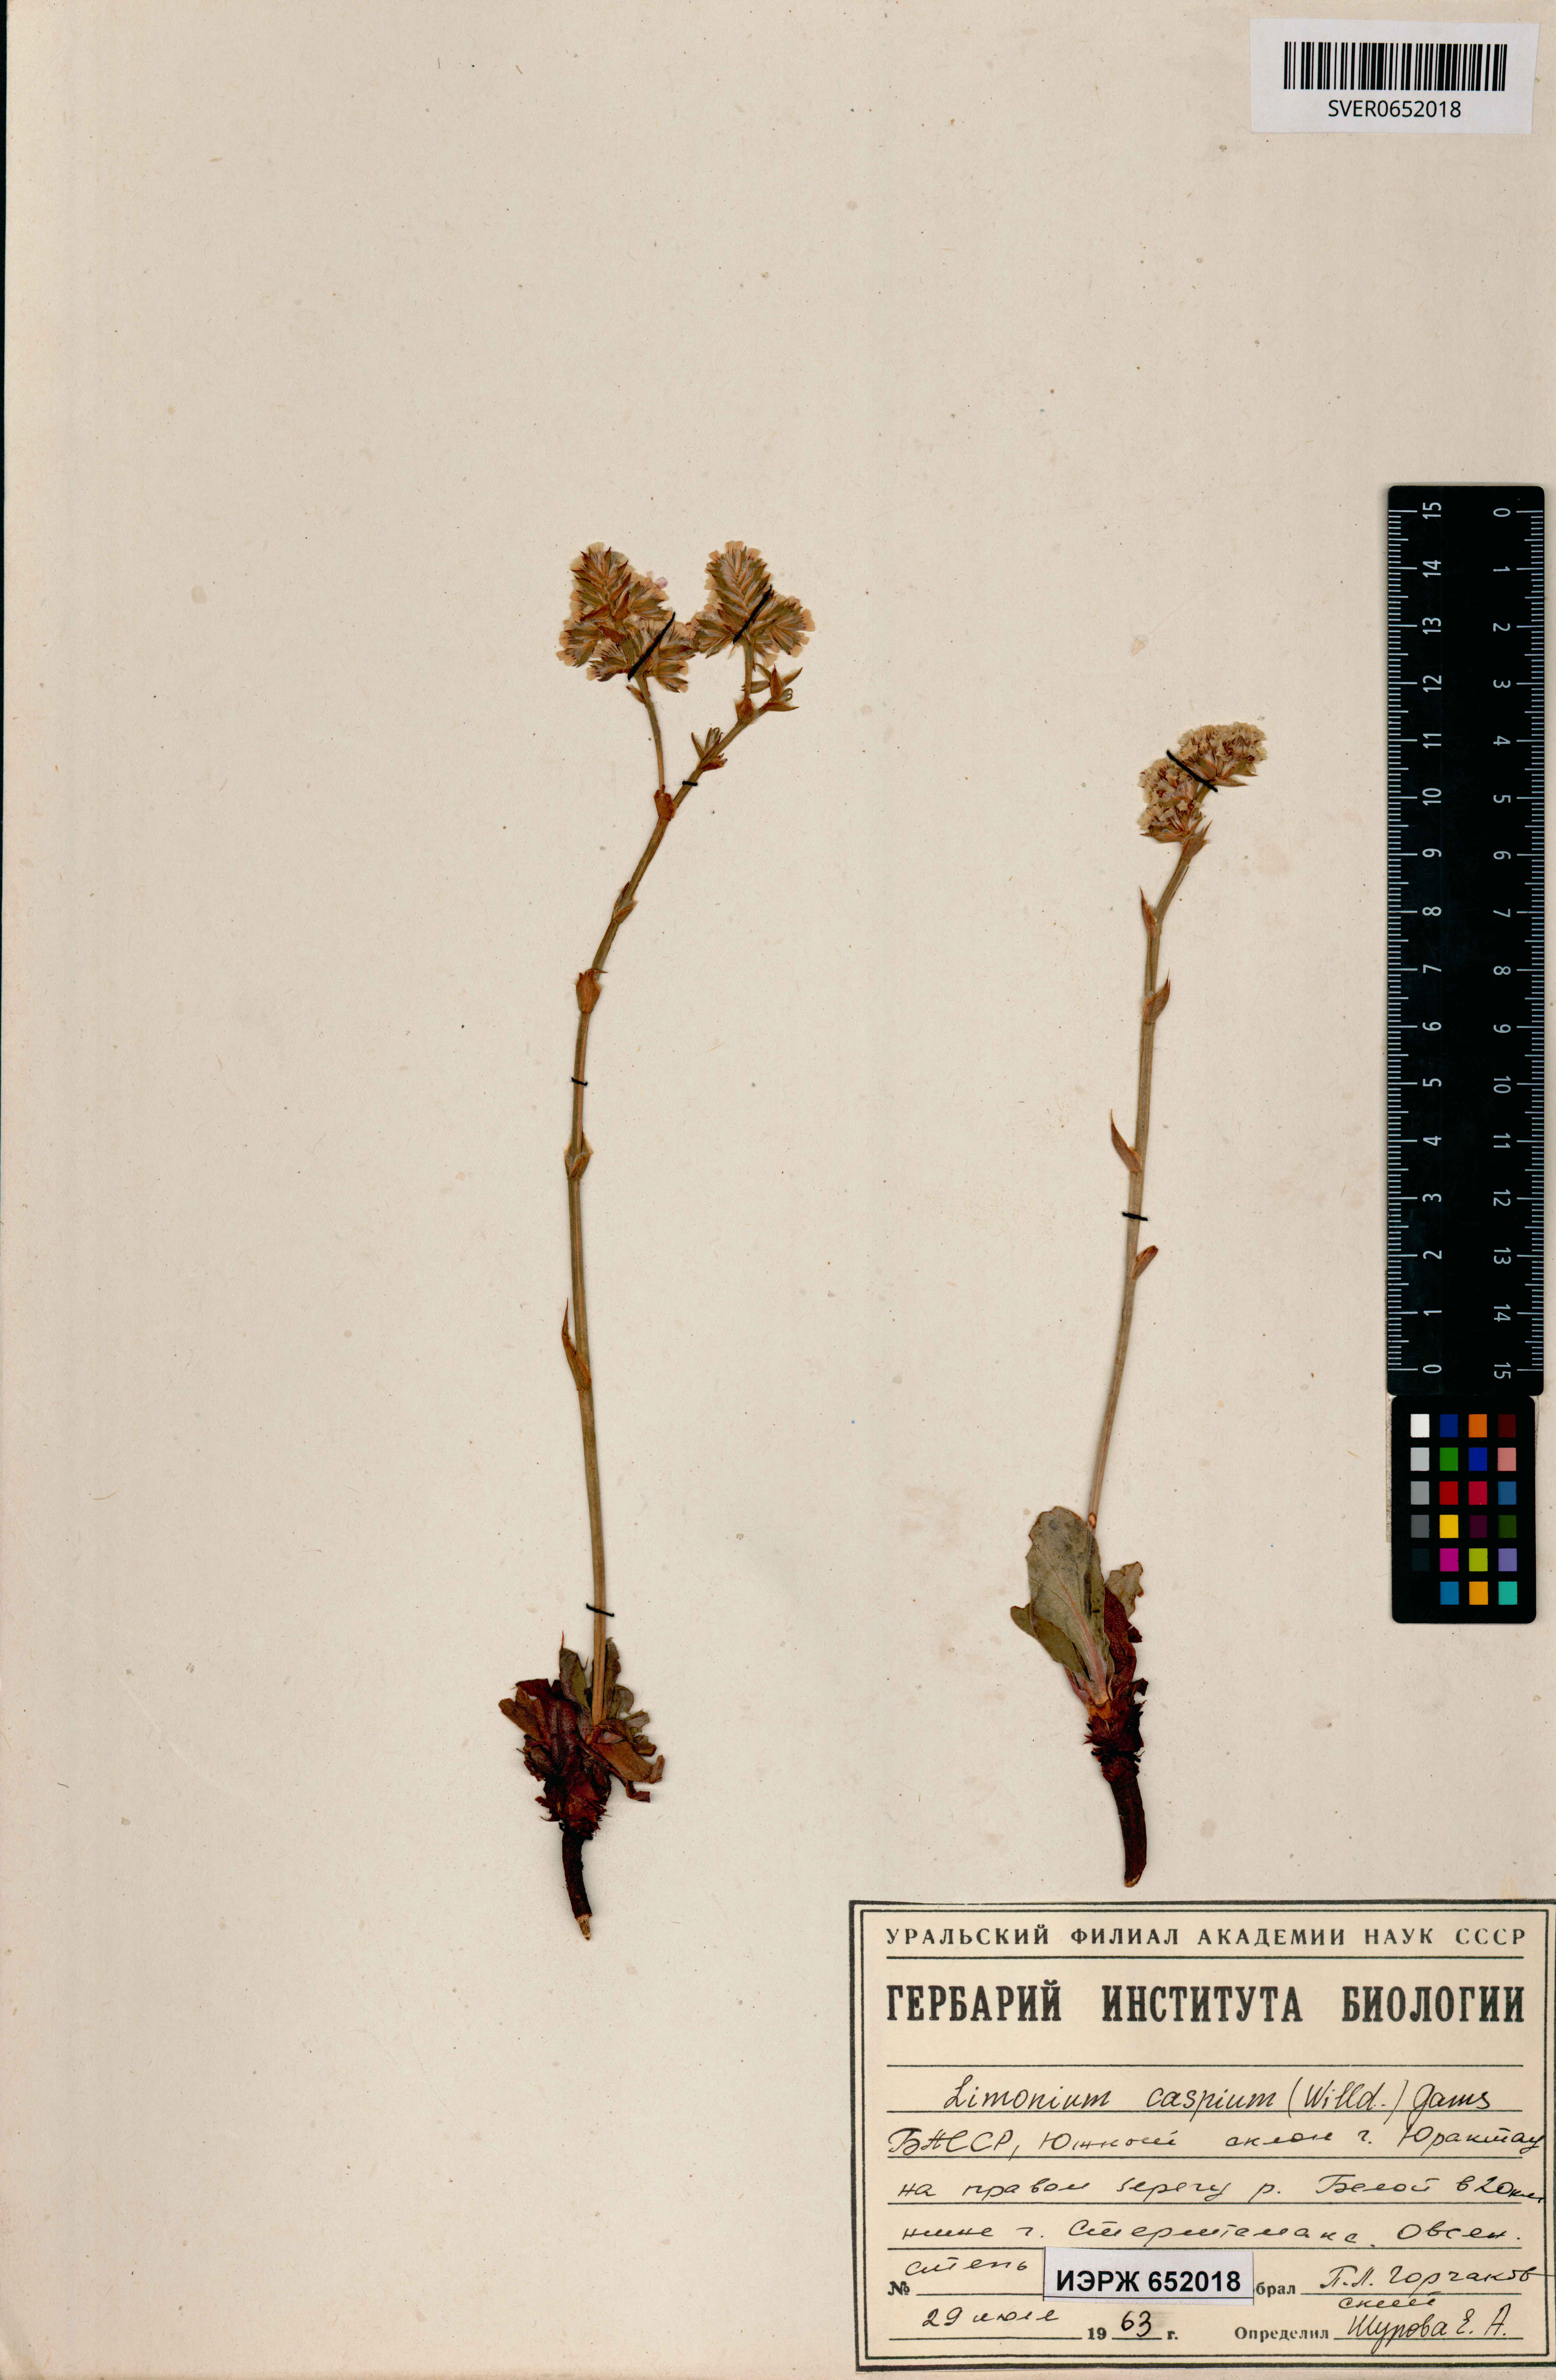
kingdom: Plantae
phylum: Tracheophyta
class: Magnoliopsida
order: Caryophyllales
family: Plumbaginaceae
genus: Limonium
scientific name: Limonium bellidifolium
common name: Matted sea-lavender
